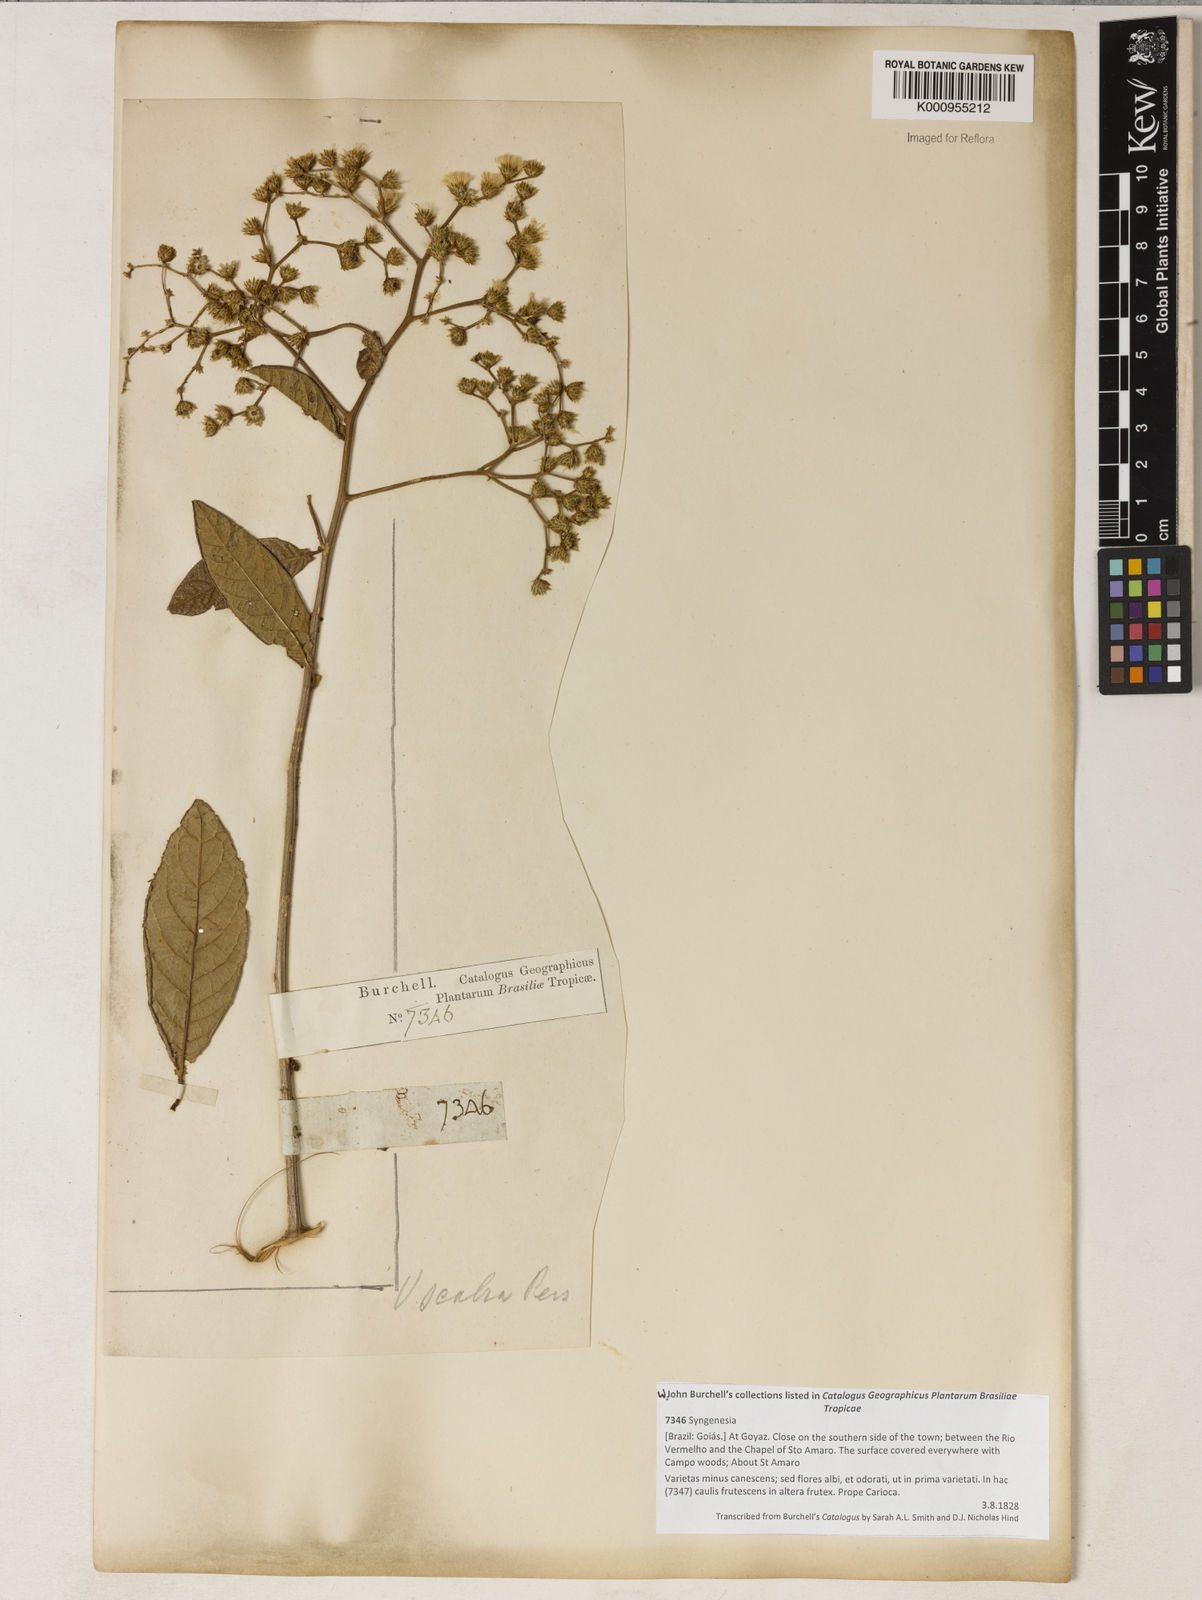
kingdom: Plantae
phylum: Tracheophyta
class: Magnoliopsida
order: Asterales
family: Asteraceae
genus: Vernonanthura
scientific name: Vernonanthura brasiliana
